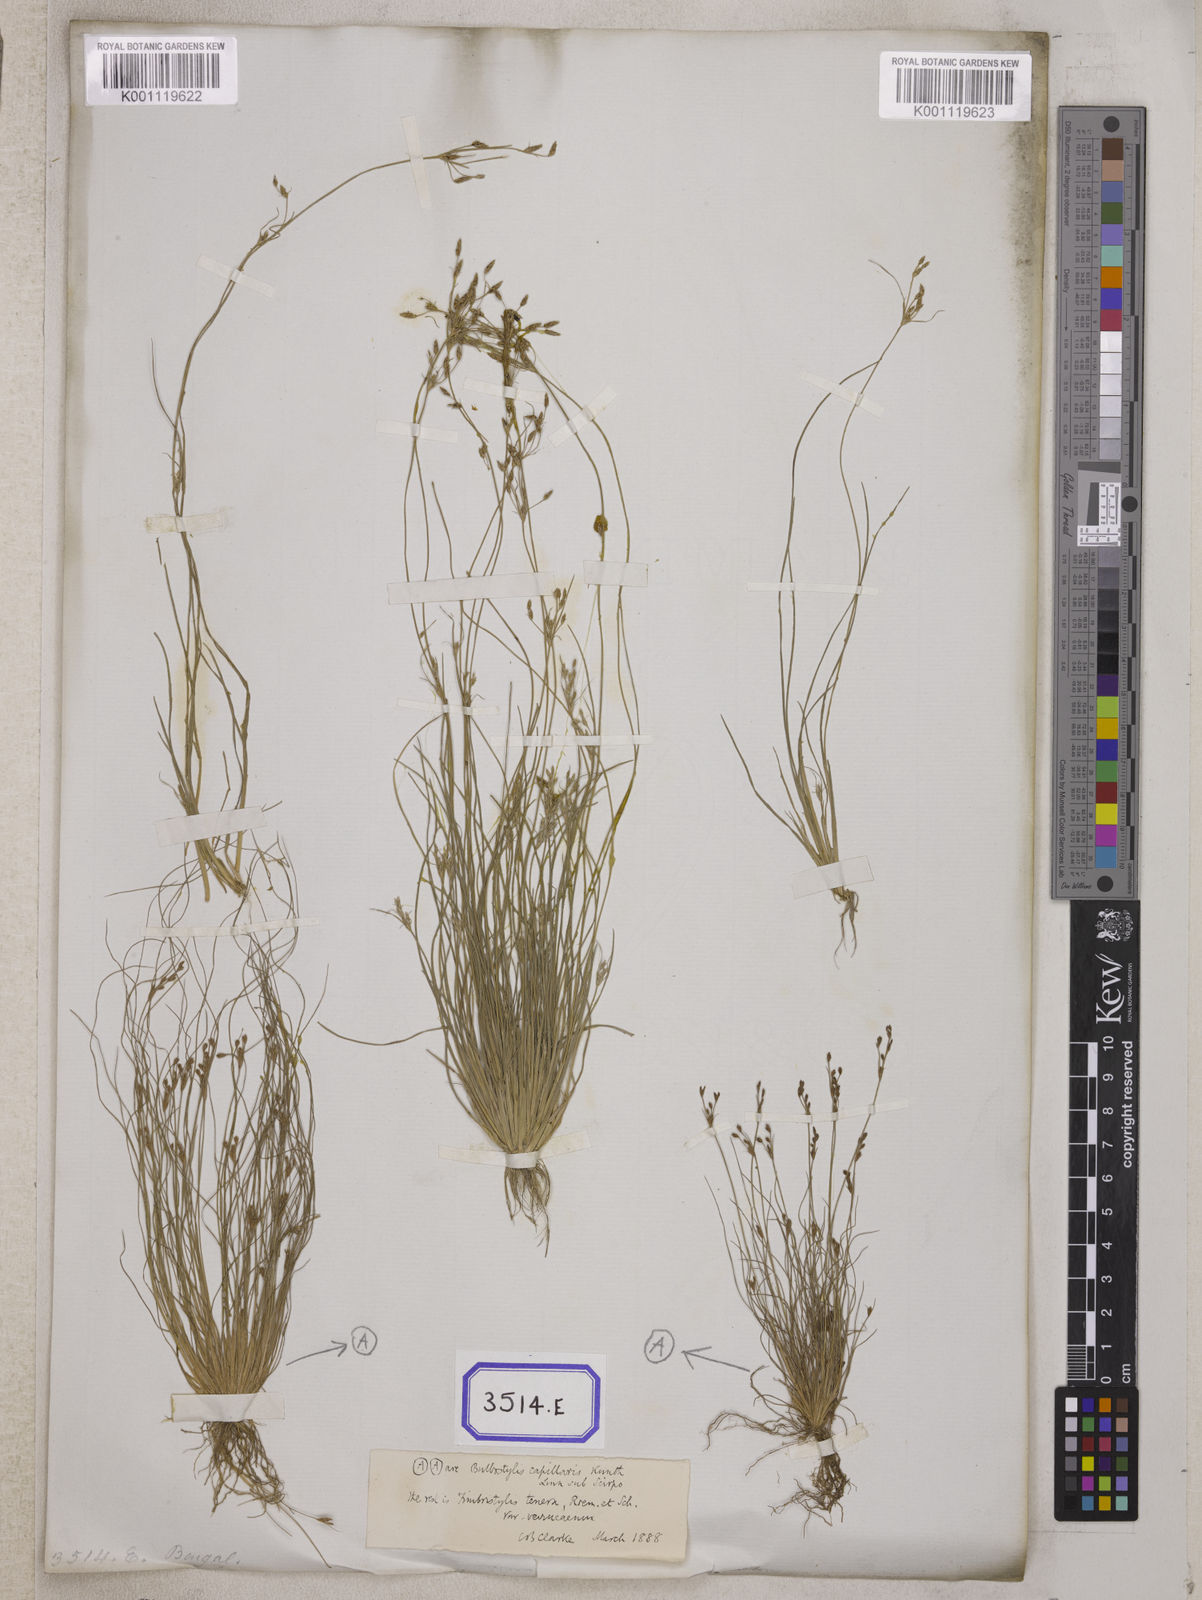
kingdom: Plantae
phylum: Tracheophyta
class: Liliopsida
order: Poales
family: Cyperaceae
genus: Fimbristylis
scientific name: Fimbristylis
